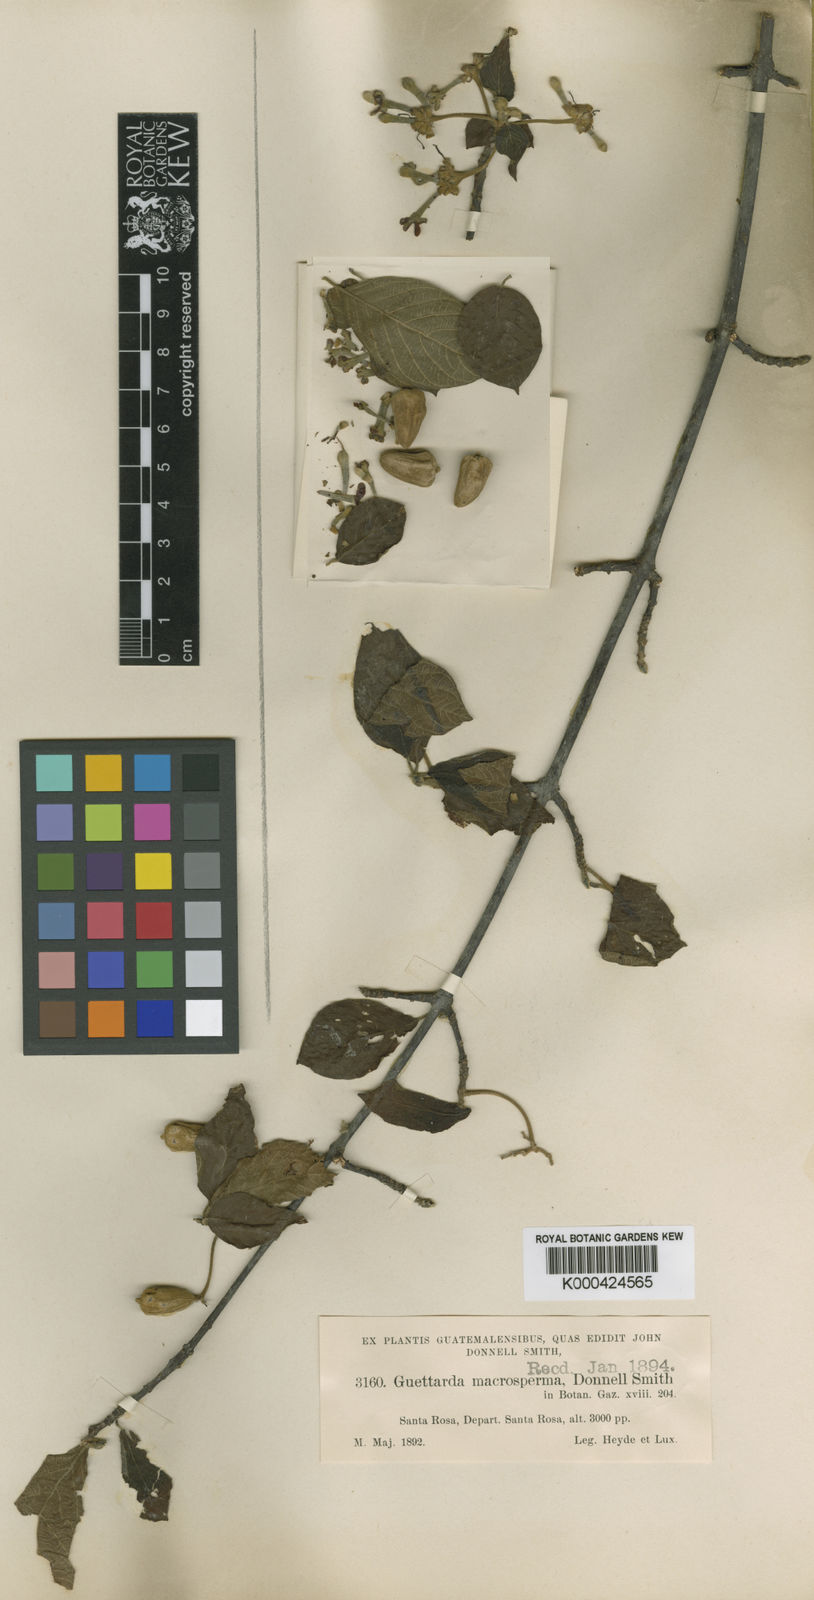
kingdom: Plantae
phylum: Tracheophyta
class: Magnoliopsida
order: Gentianales
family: Rubiaceae
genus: Guettarda
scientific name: Guettarda macrosperma
